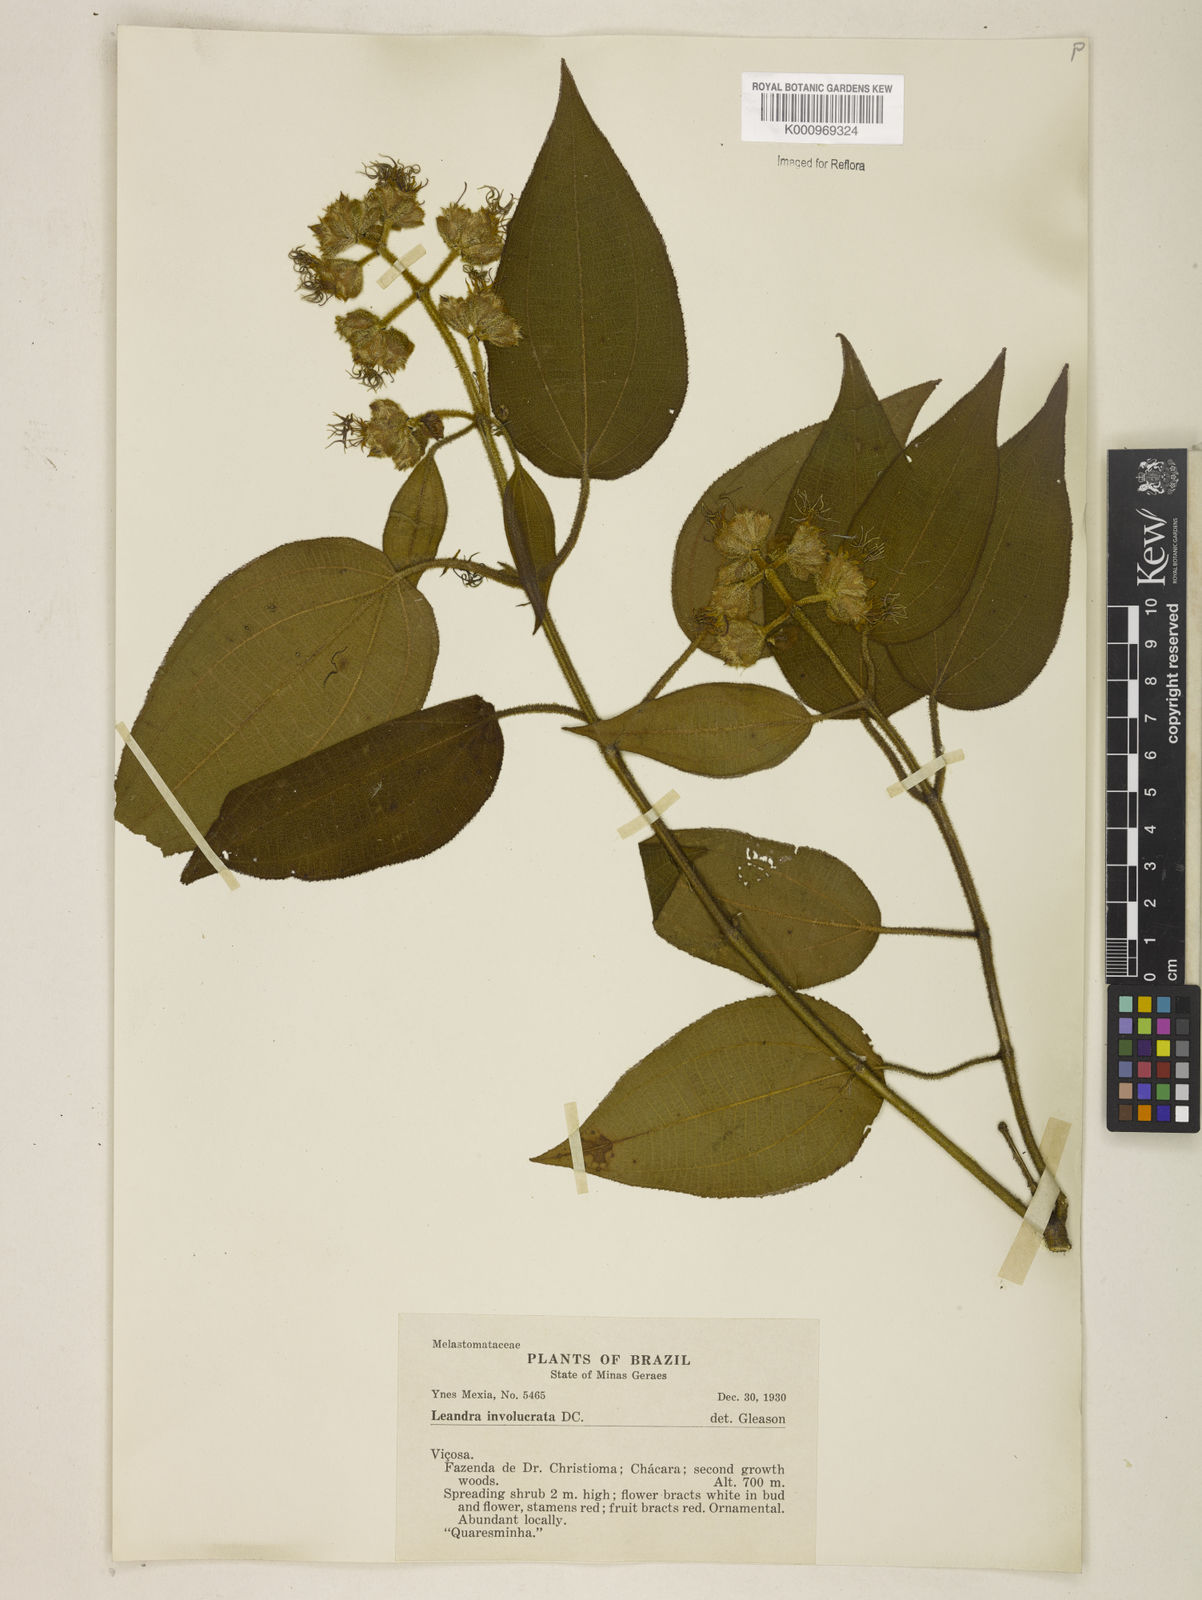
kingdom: Plantae
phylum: Tracheophyta
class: Magnoliopsida
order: Myrtales
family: Melastomataceae
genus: Miconia
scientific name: Miconia leaumbellata
